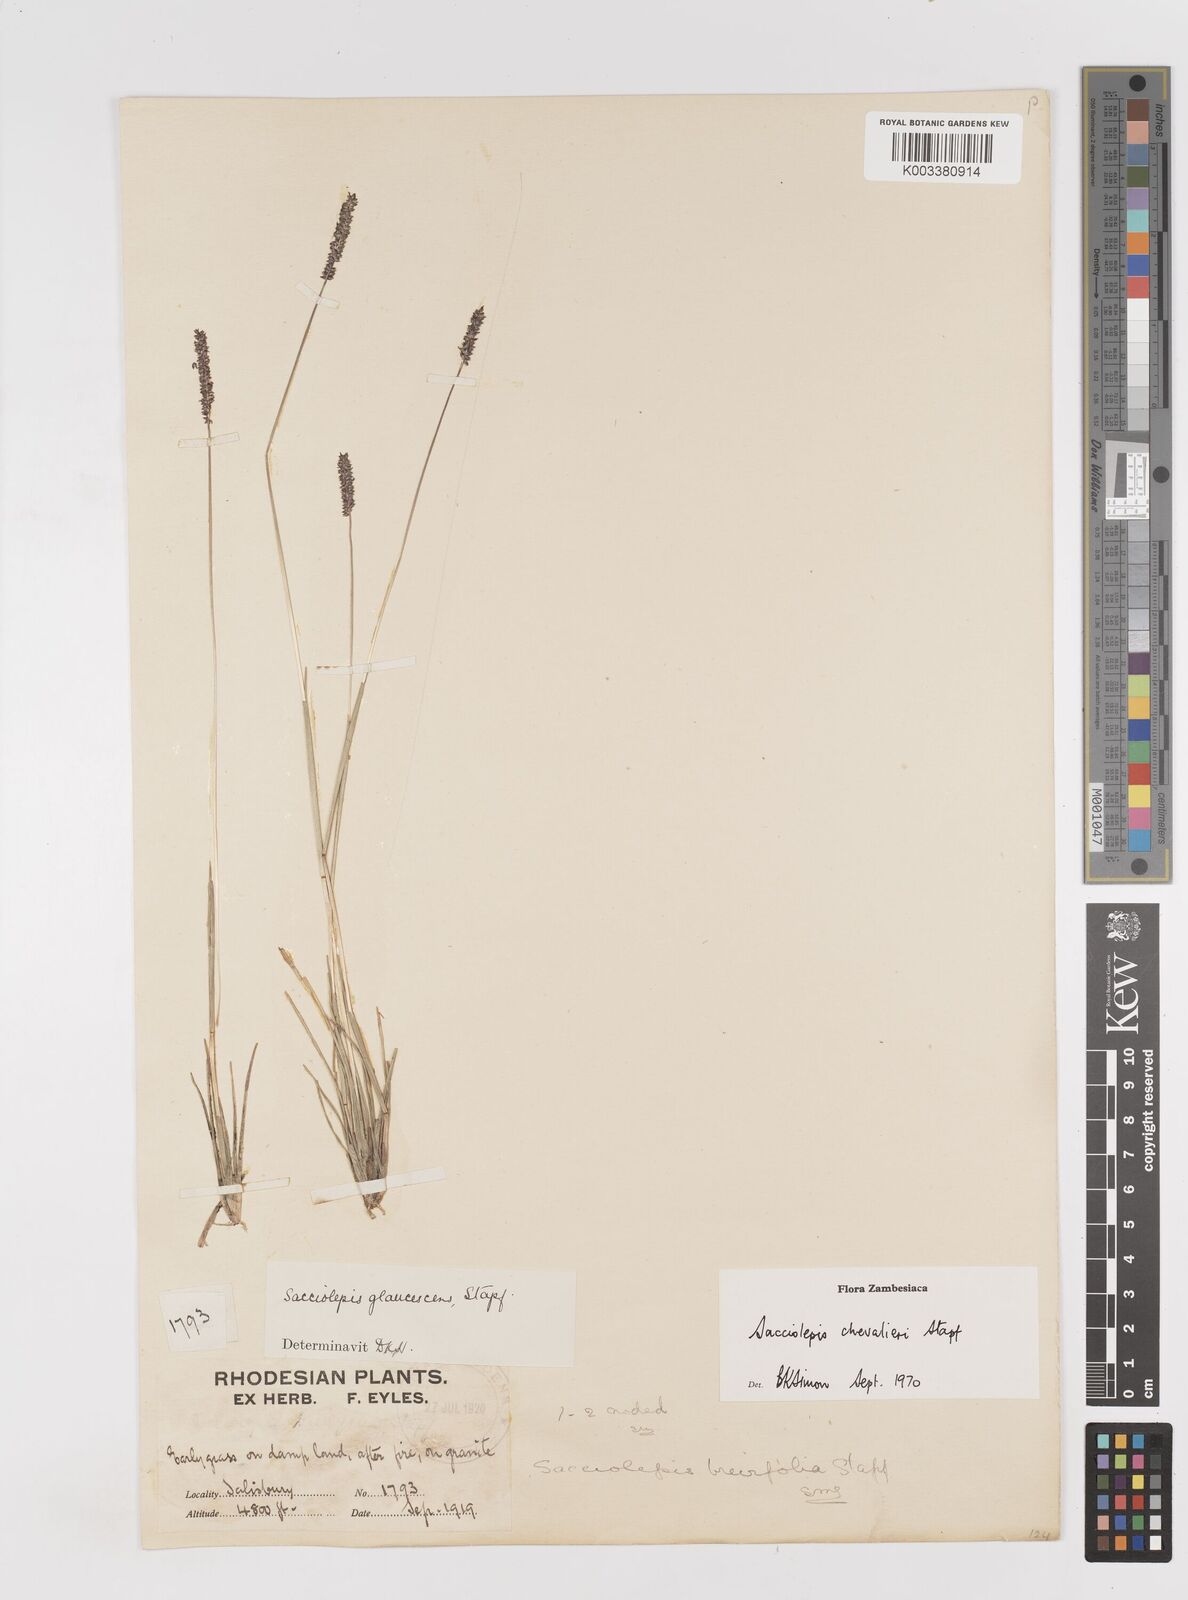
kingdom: Plantae
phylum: Tracheophyta
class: Liliopsida
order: Poales
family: Poaceae
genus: Sacciolepis
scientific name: Sacciolepis chevalieri
